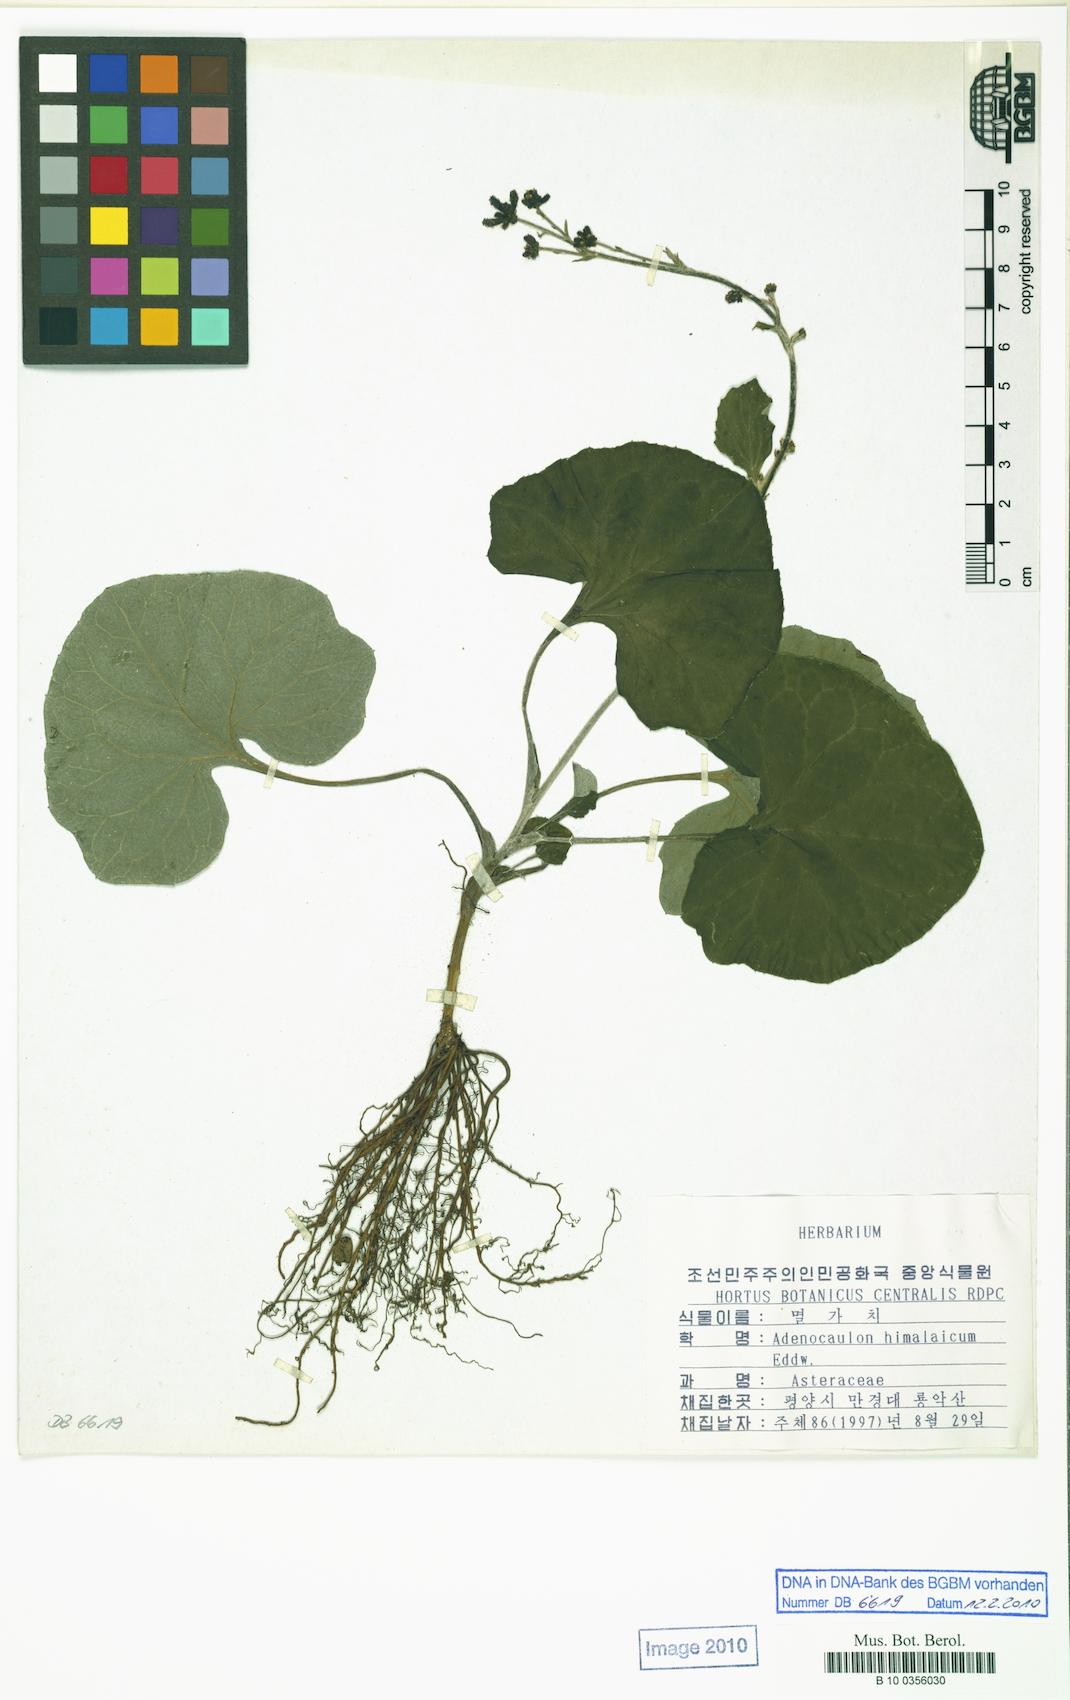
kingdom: Plantae
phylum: Tracheophyta
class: Magnoliopsida
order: Asterales
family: Asteraceae
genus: Adenocaulon
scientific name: Adenocaulon himalaicum
